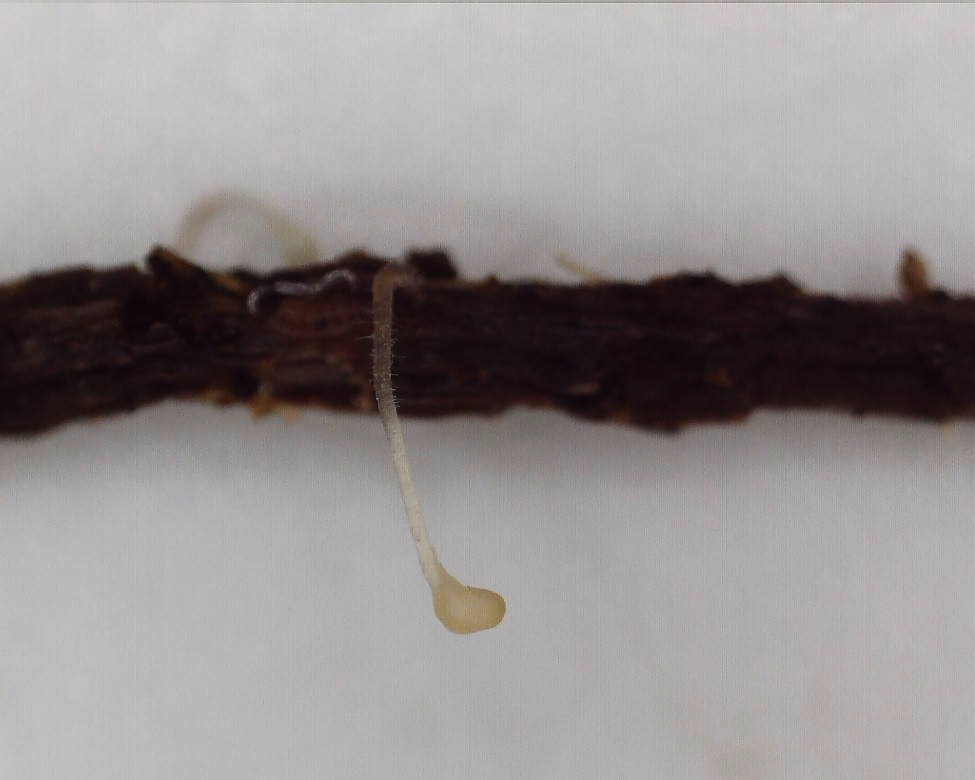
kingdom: Fungi
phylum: Basidiomycota
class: Agaricomycetes
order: Agaricales
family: Typhulaceae
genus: Typhula
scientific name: Typhula setipes
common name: liden trådkølle
